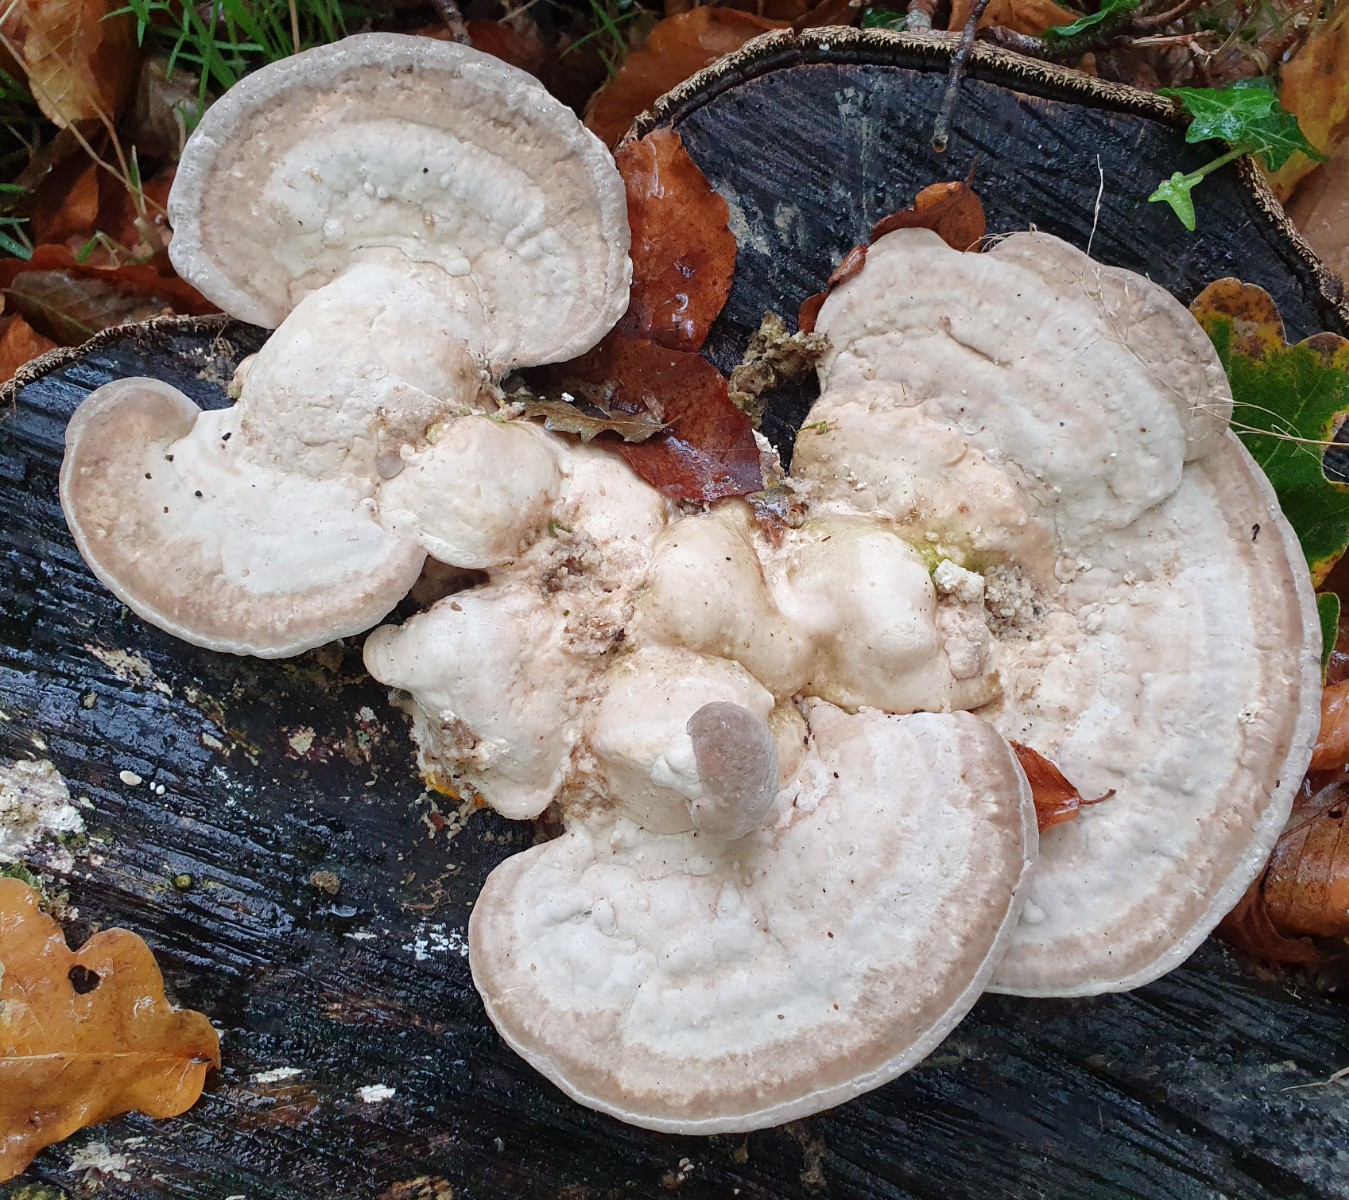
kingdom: Fungi
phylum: Basidiomycota
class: Agaricomycetes
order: Polyporales
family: Polyporaceae
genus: Trametes
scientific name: Trametes gibbosa
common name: puklet læderporesvamp
